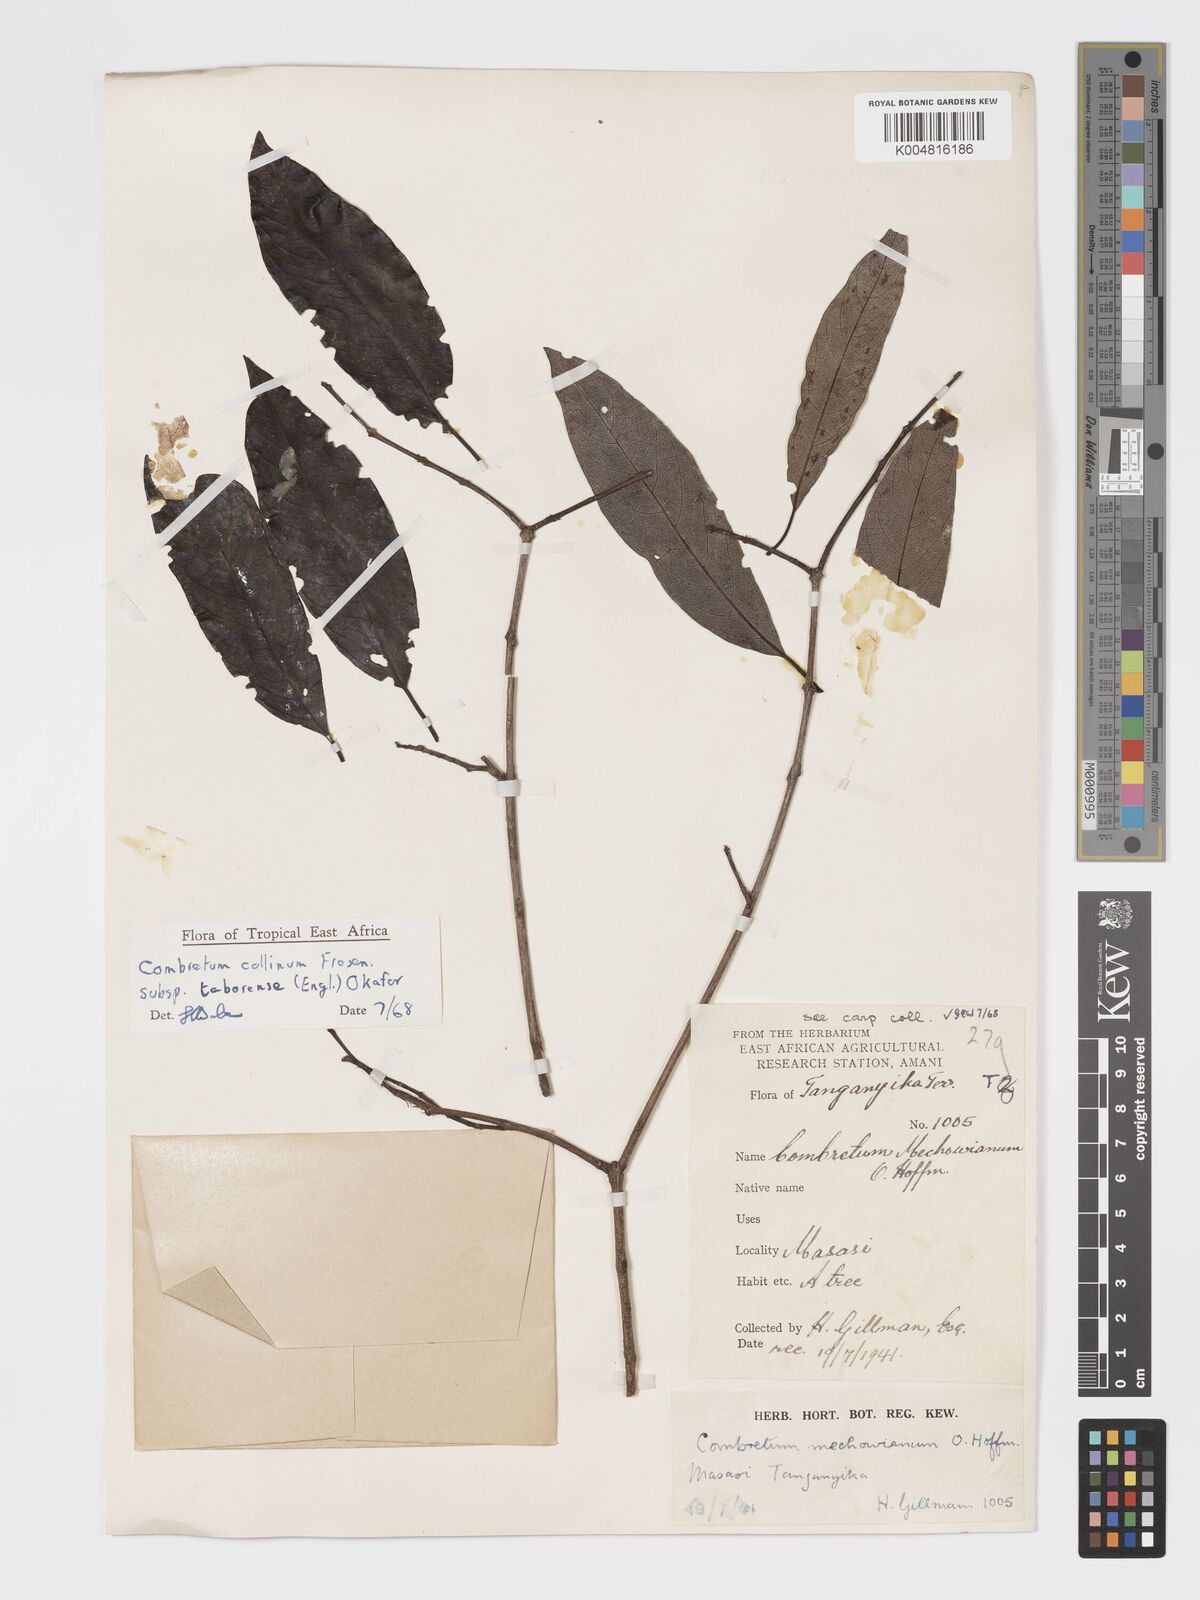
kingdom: Plantae
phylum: Tracheophyta
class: Magnoliopsida
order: Myrtales
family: Combretaceae
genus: Combretum
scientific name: Combretum
